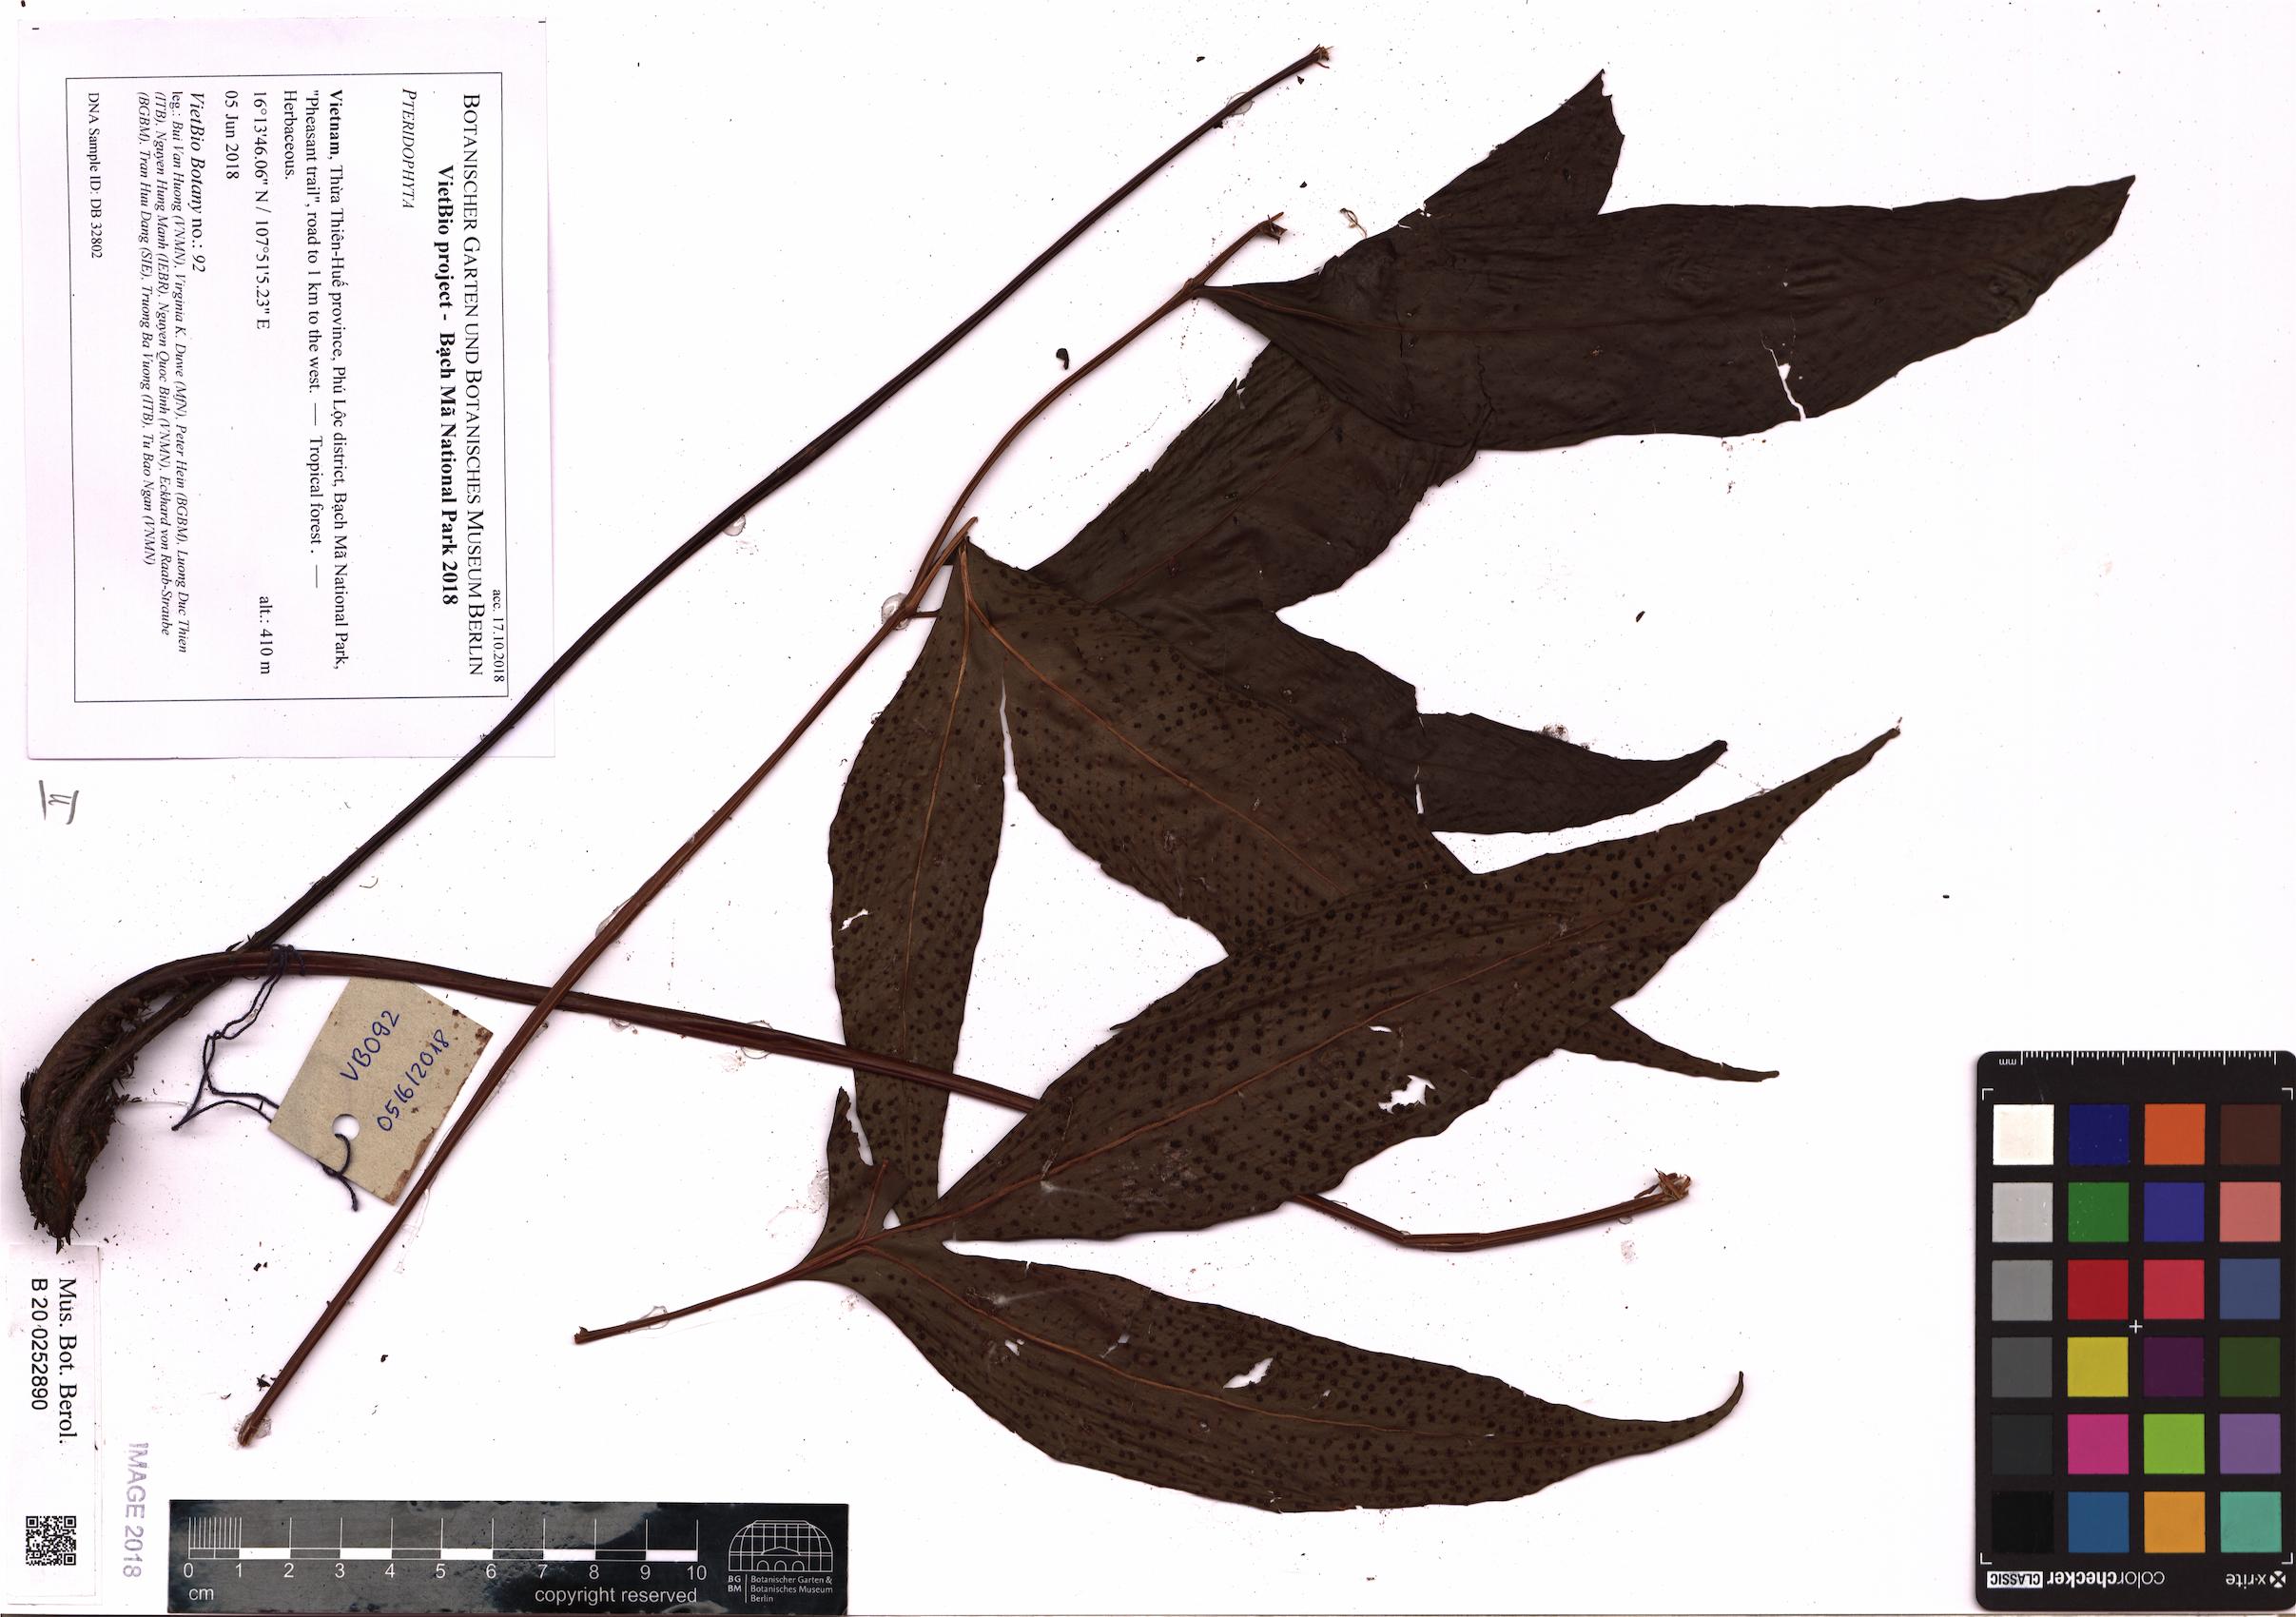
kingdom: Plantae
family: Pteridophyta
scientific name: Pteridophyta
